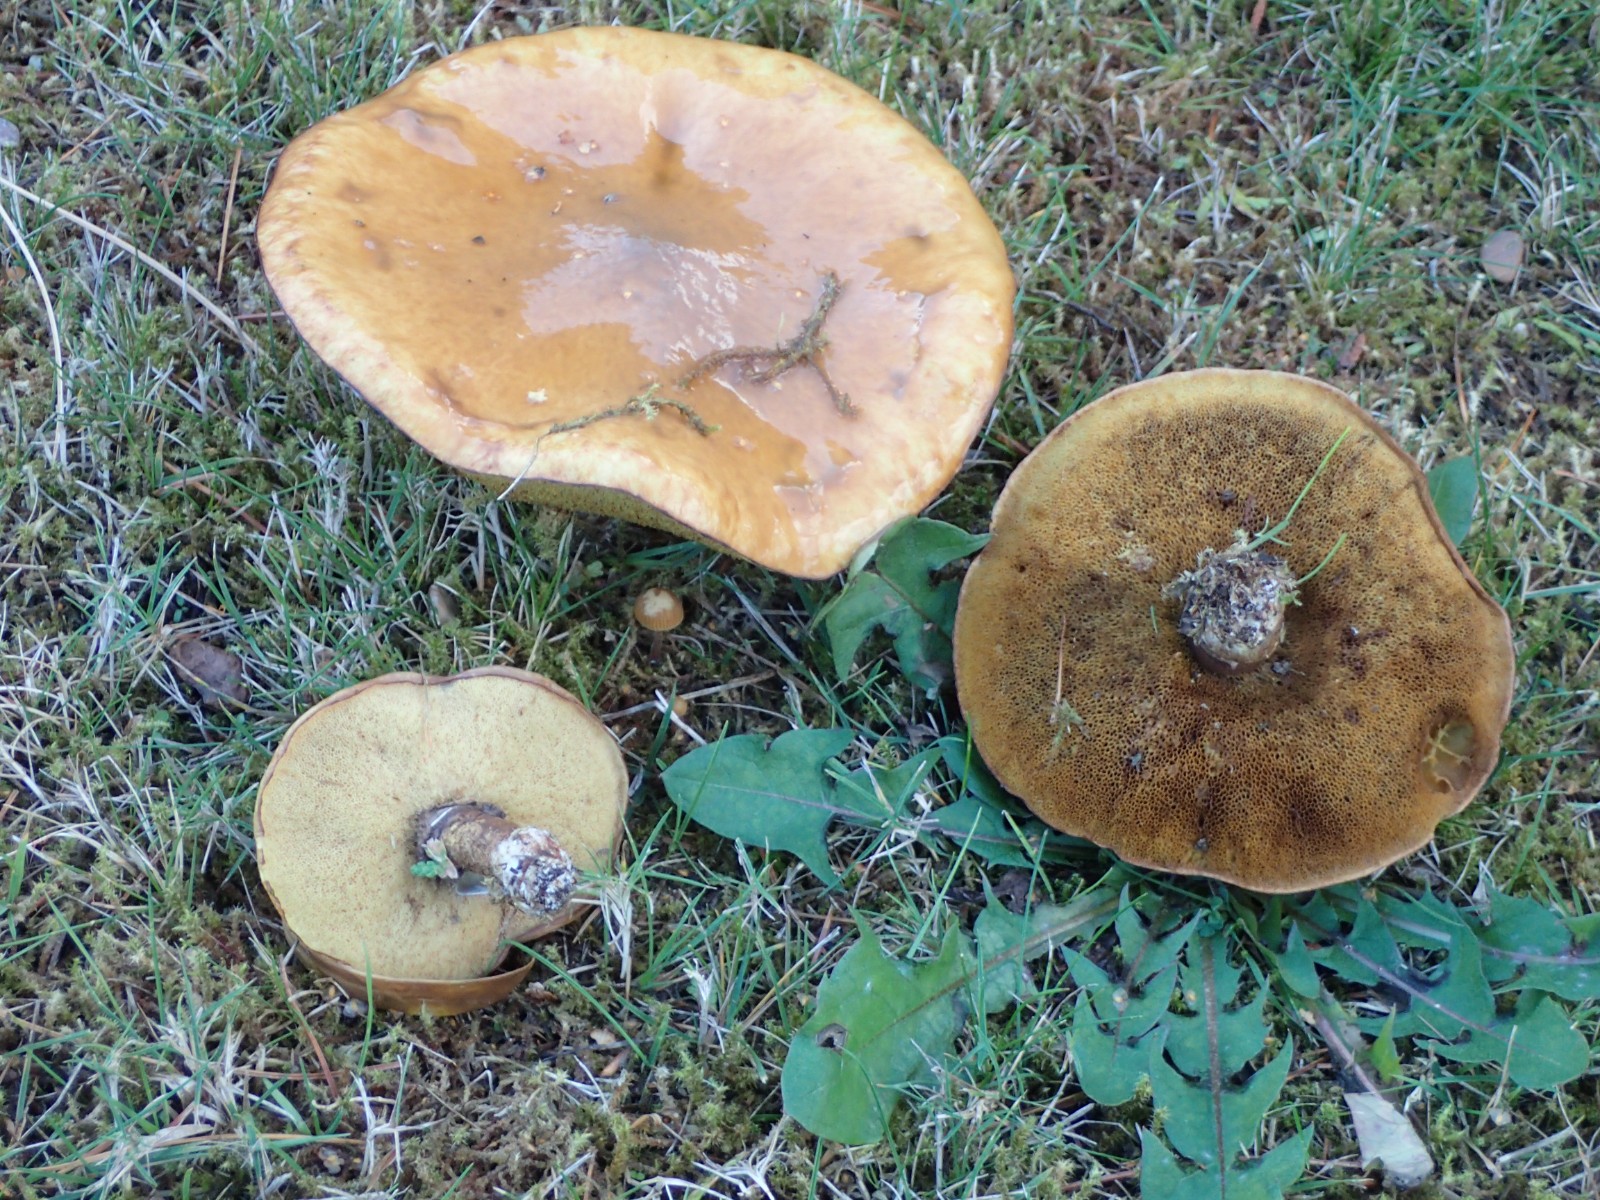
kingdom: Fungi
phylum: Basidiomycota
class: Agaricomycetes
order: Boletales
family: Suillaceae
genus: Suillus
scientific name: Suillus luteus
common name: brungul slimrørhat
